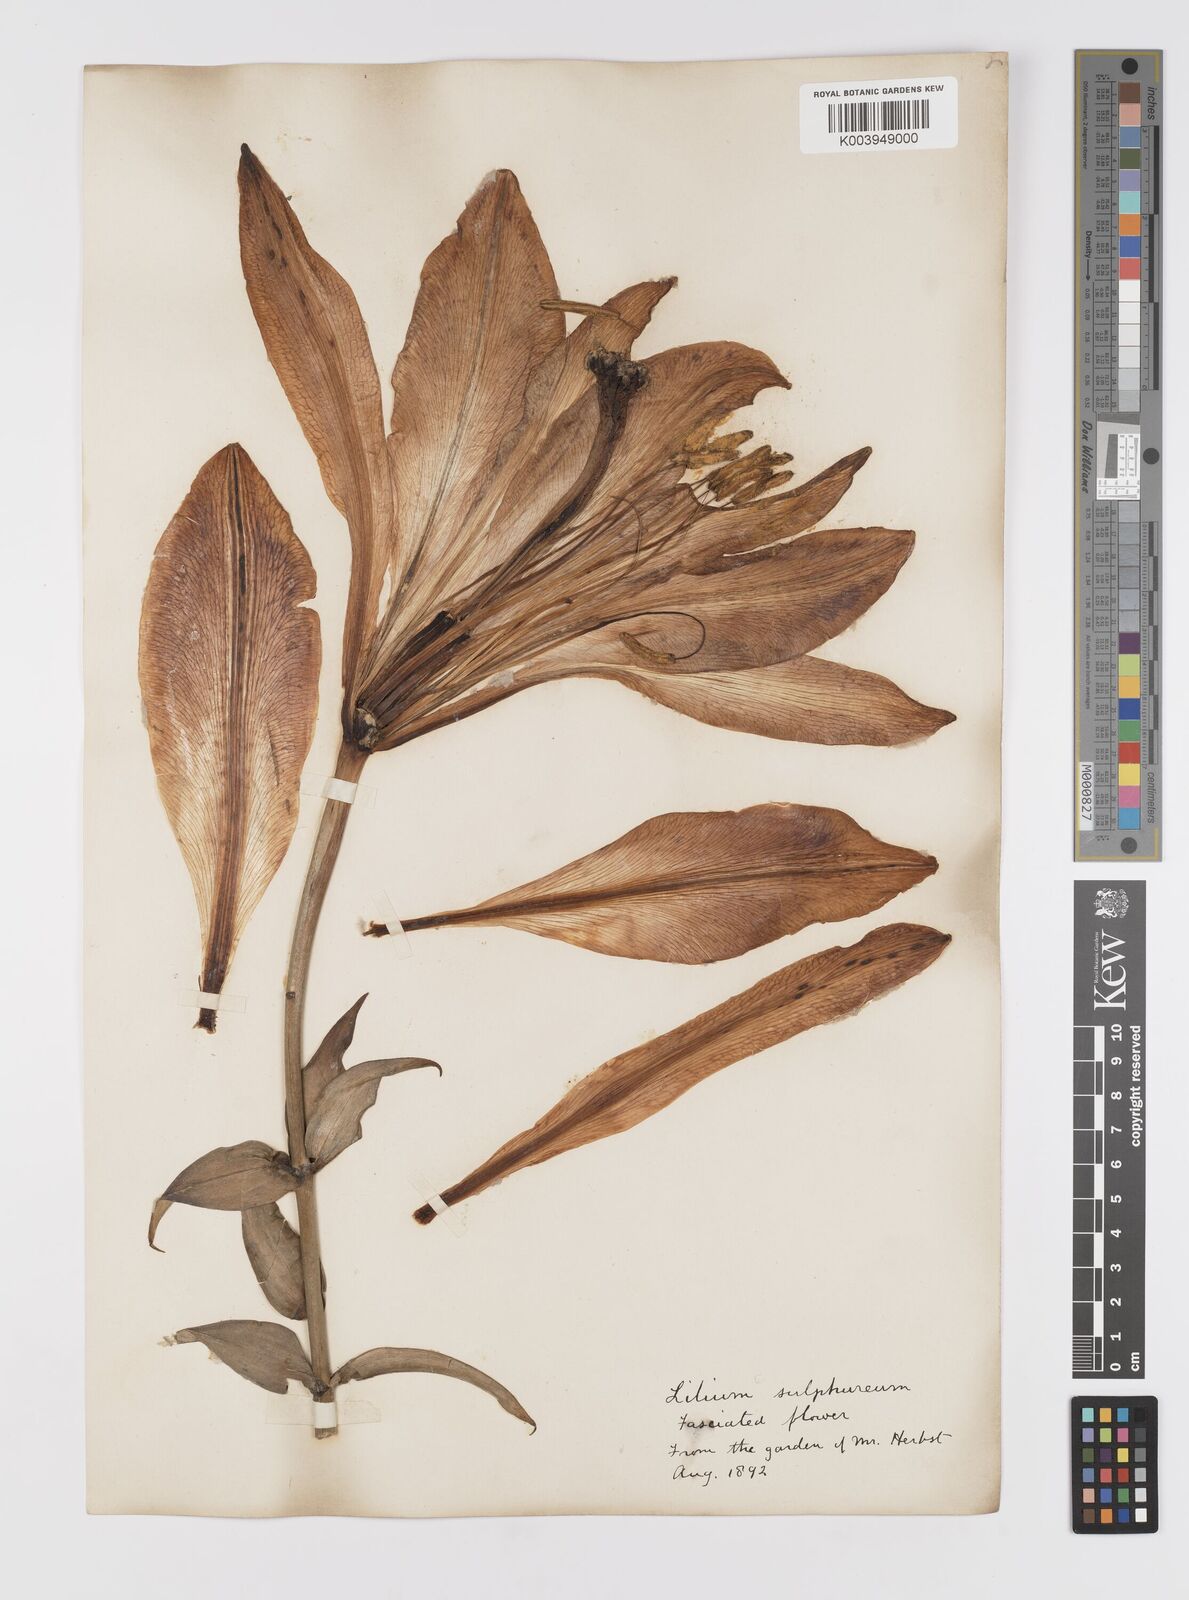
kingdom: Plantae
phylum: Tracheophyta
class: Liliopsida
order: Liliales
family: Liliaceae
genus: Lilium
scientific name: Lilium
